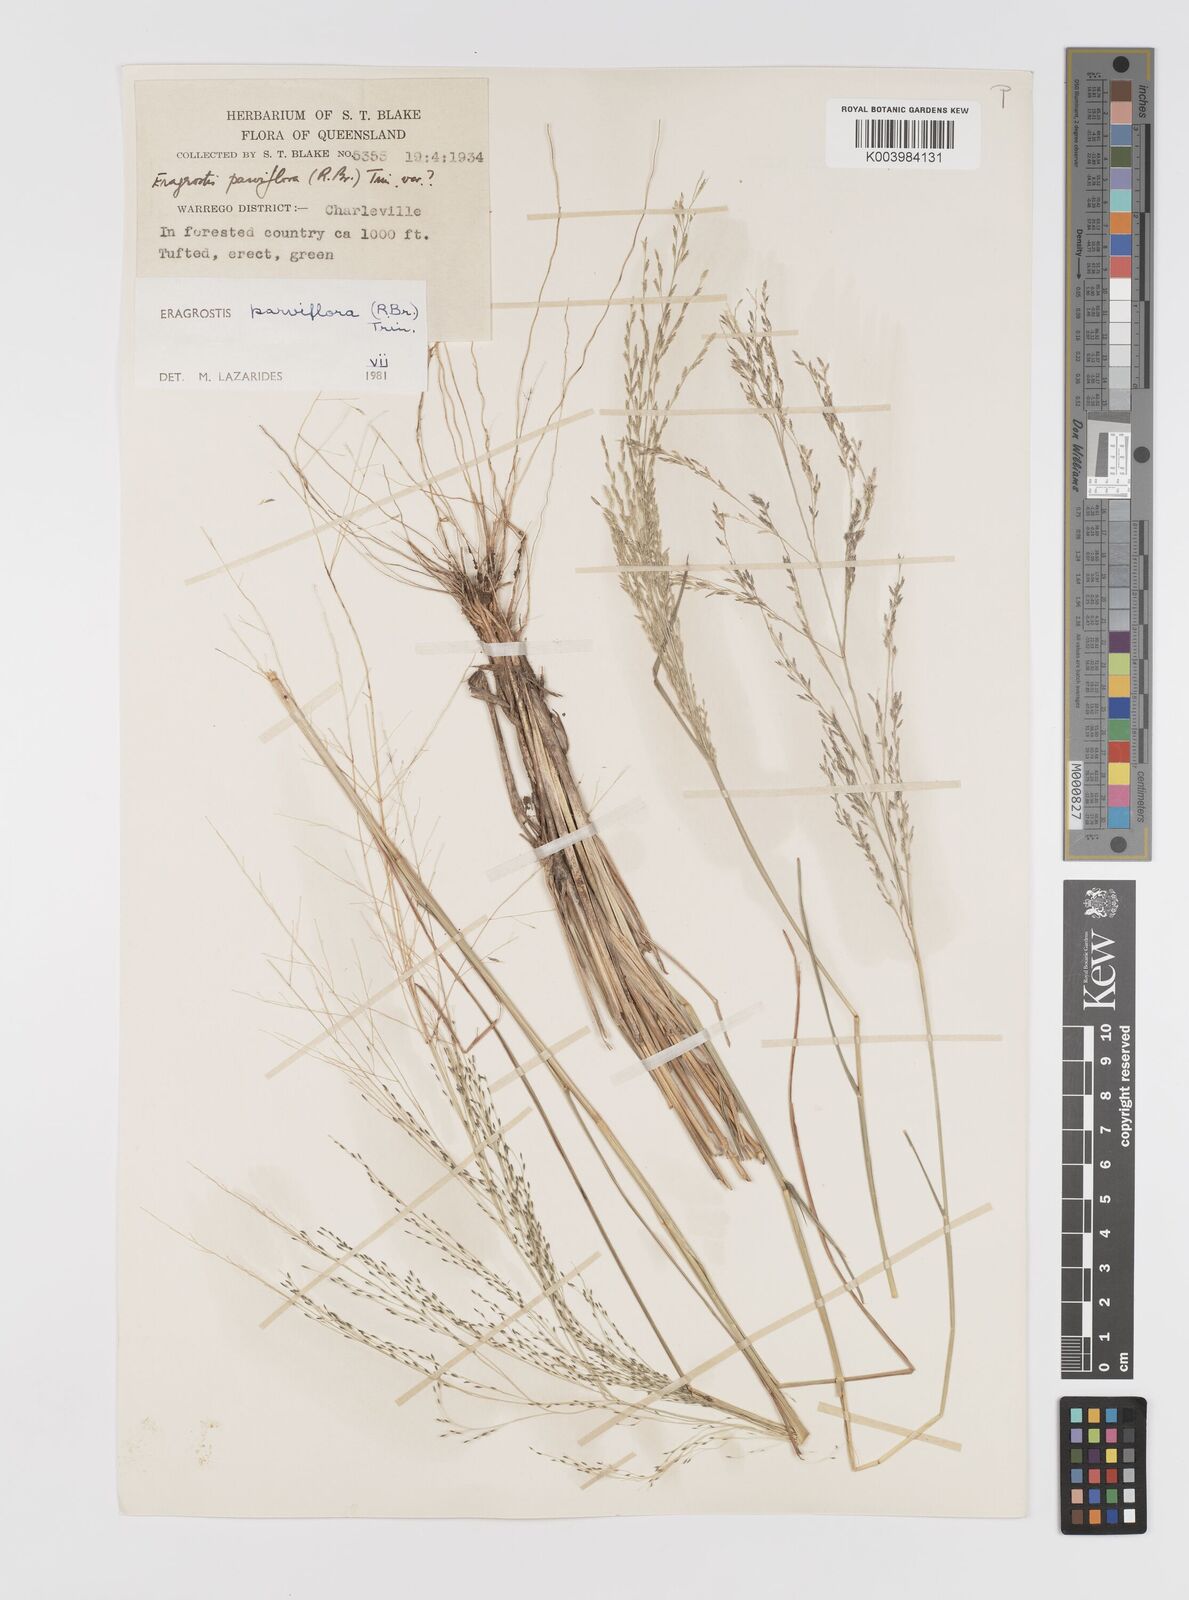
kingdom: Plantae
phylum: Tracheophyta
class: Liliopsida
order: Poales
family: Poaceae
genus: Eragrostis
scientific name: Eragrostis parviflora
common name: Weeping love-grass
